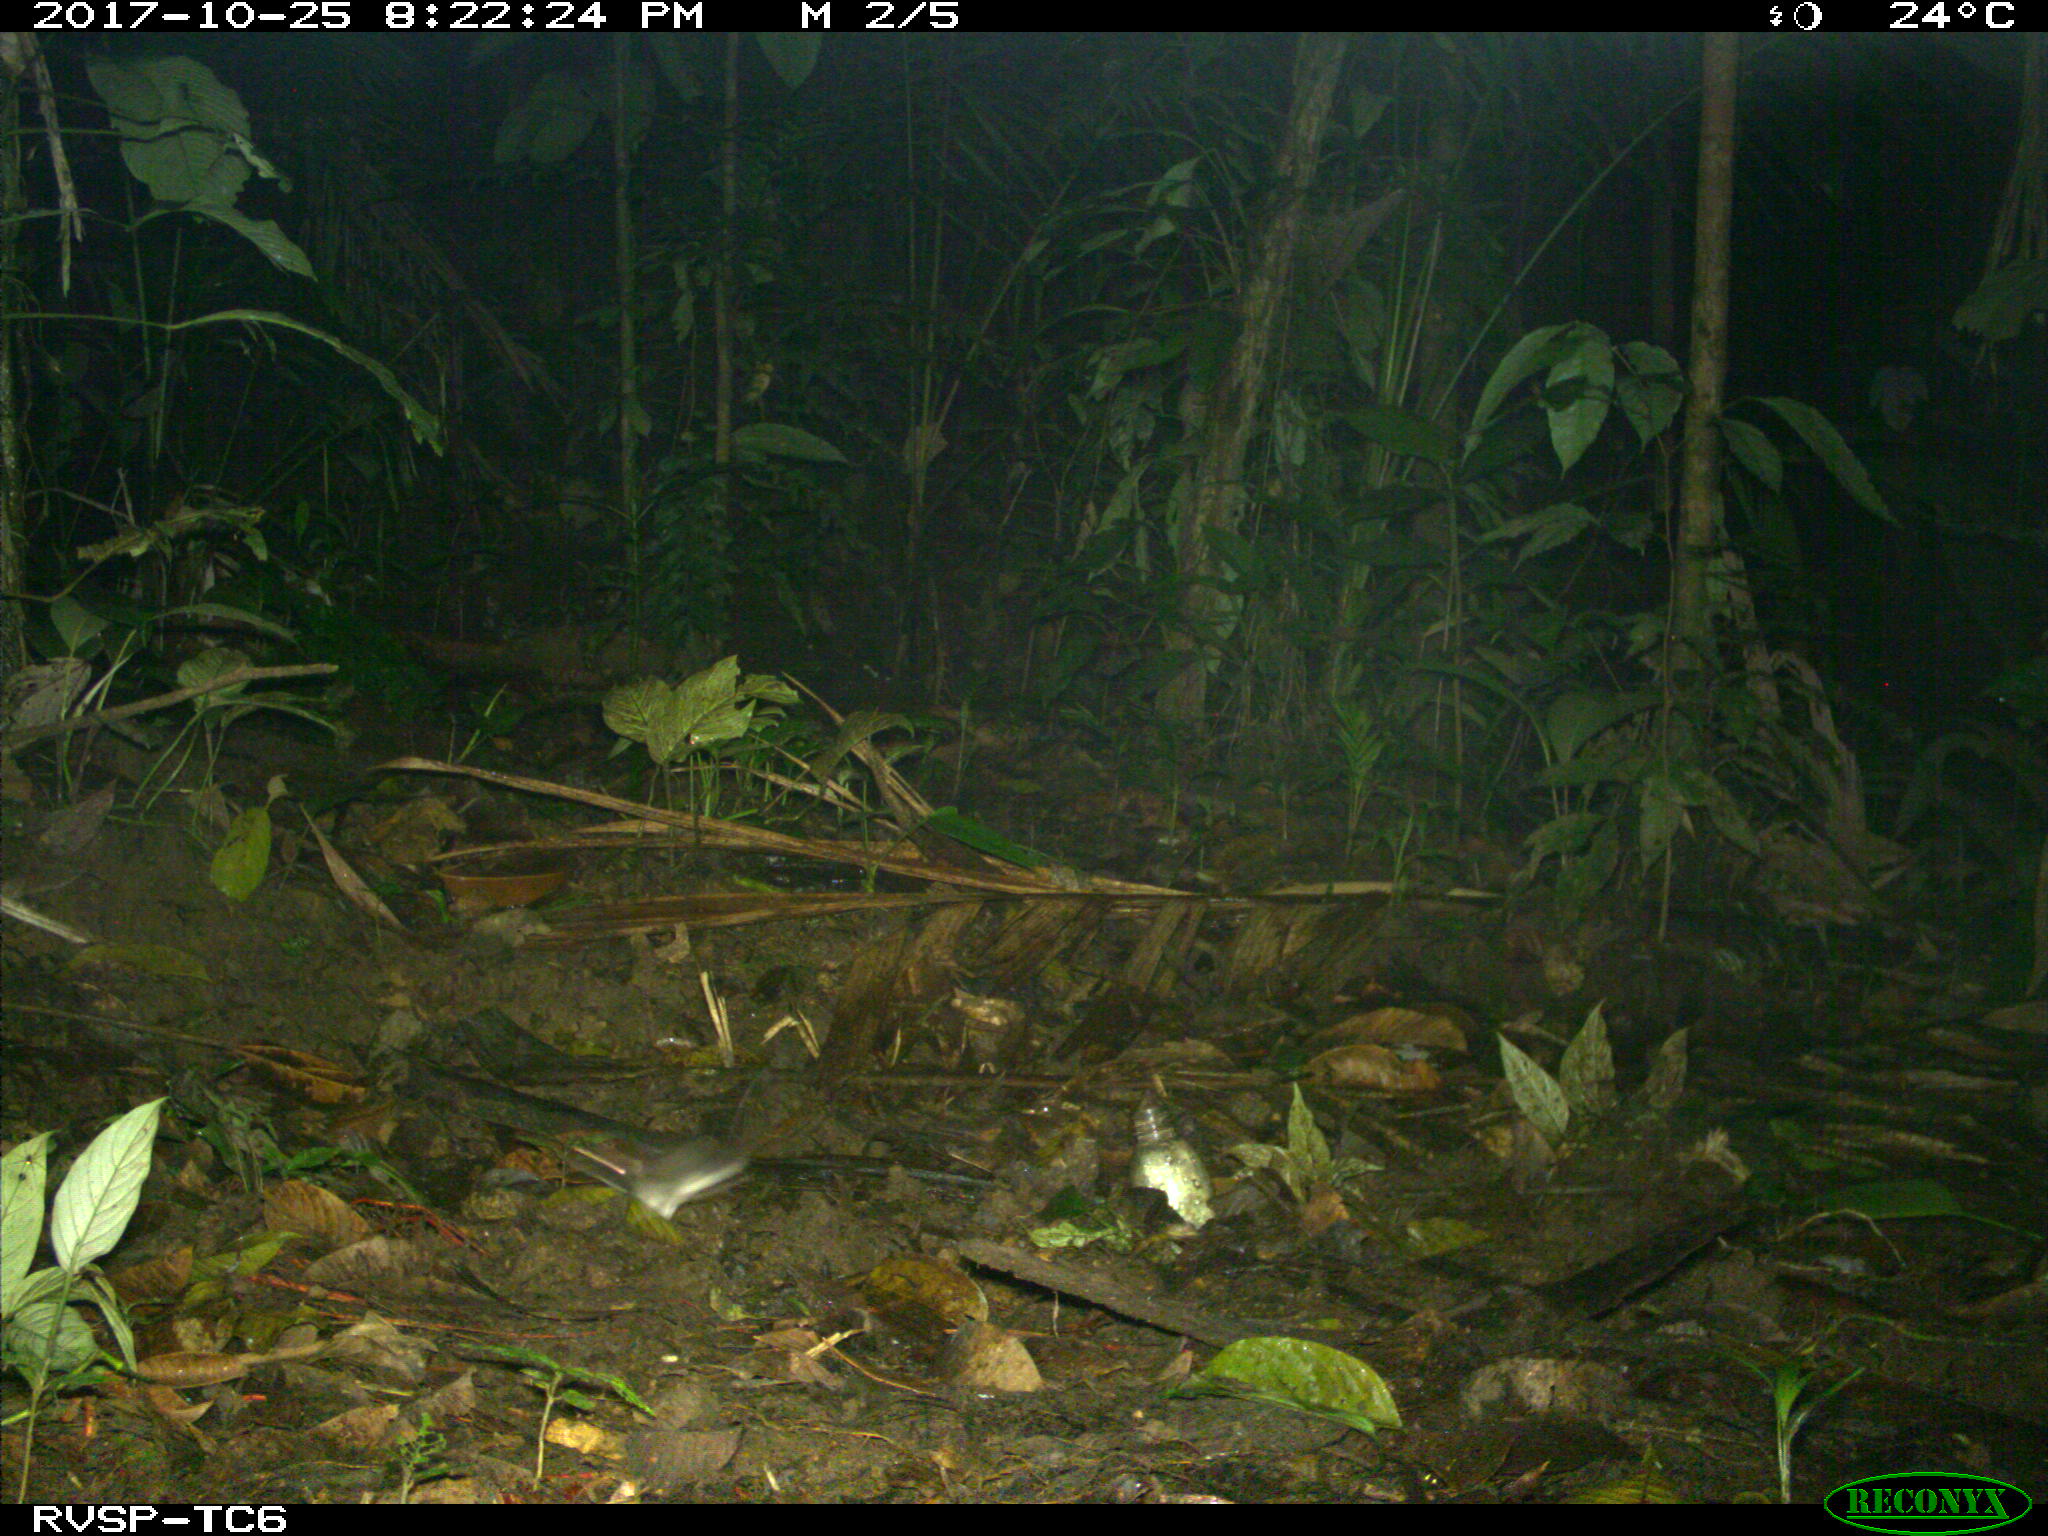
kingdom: Animalia
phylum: Chordata
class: Mammalia
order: Rodentia
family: Echimyidae
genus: Proechimys
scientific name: Proechimys
